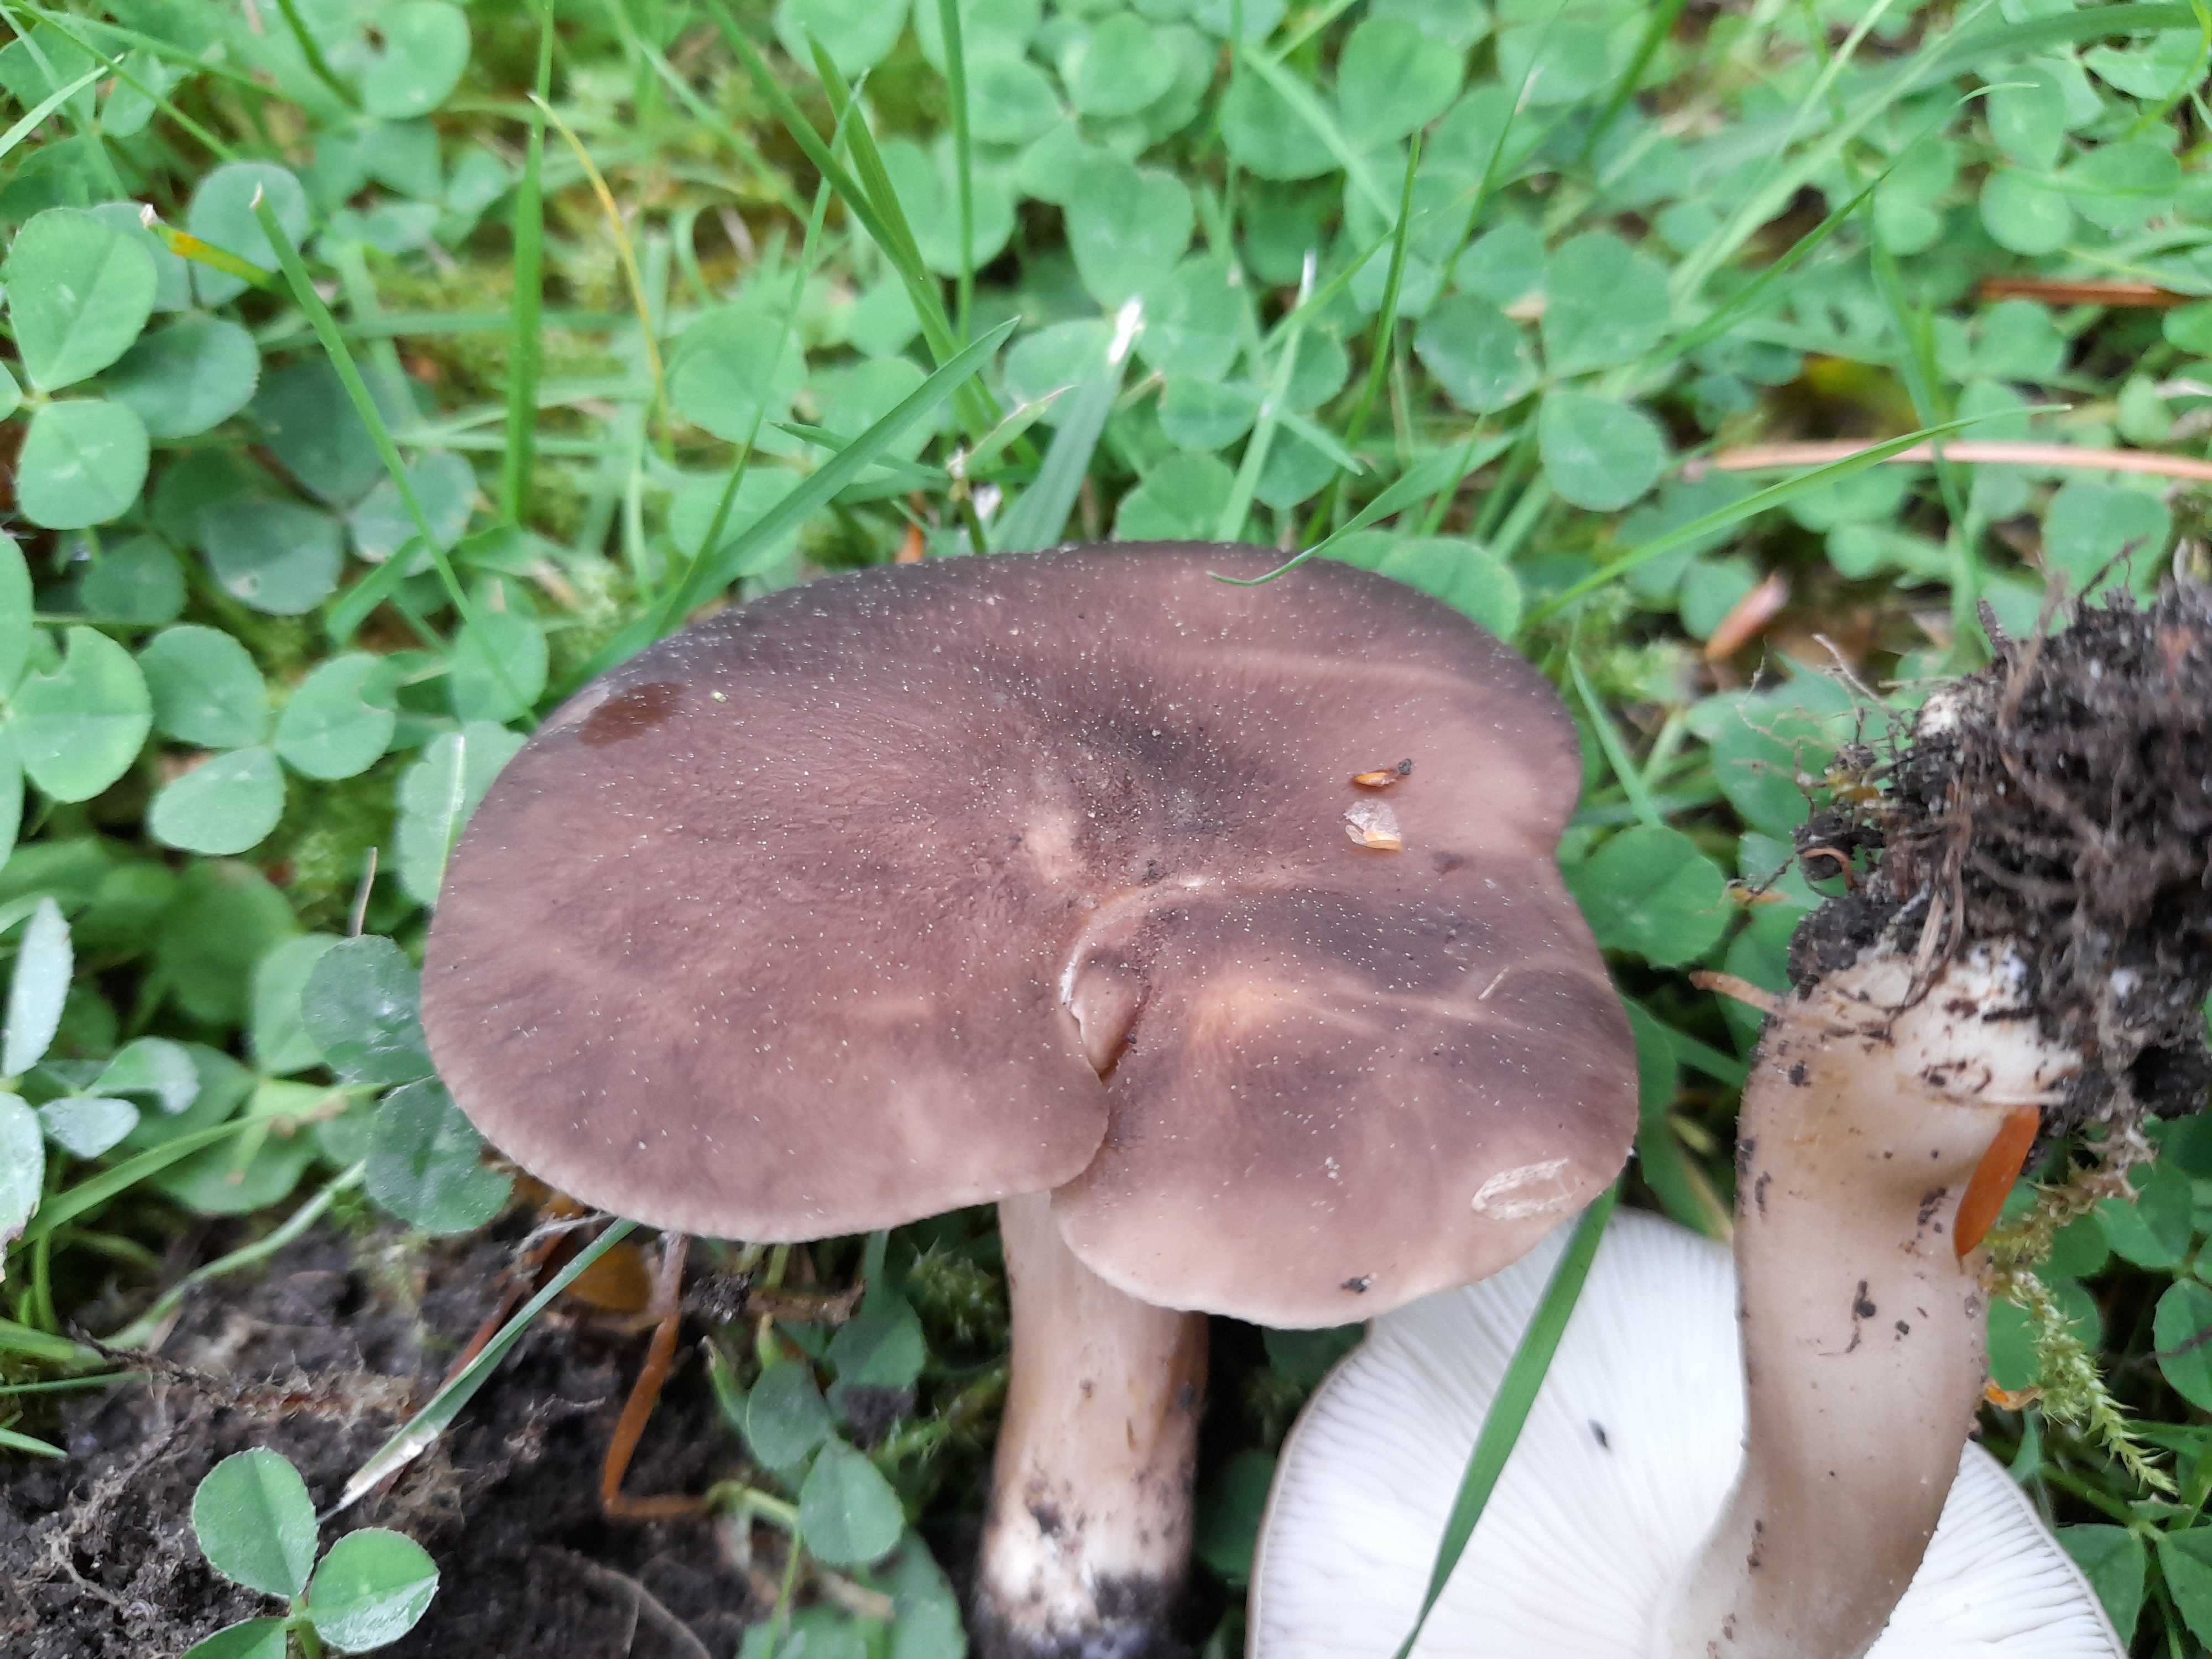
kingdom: Fungi
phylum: Basidiomycota
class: Agaricomycetes
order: Agaricales
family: Lyophyllaceae
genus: Lyophyllum
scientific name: Lyophyllum decastes
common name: Clustered domecap
